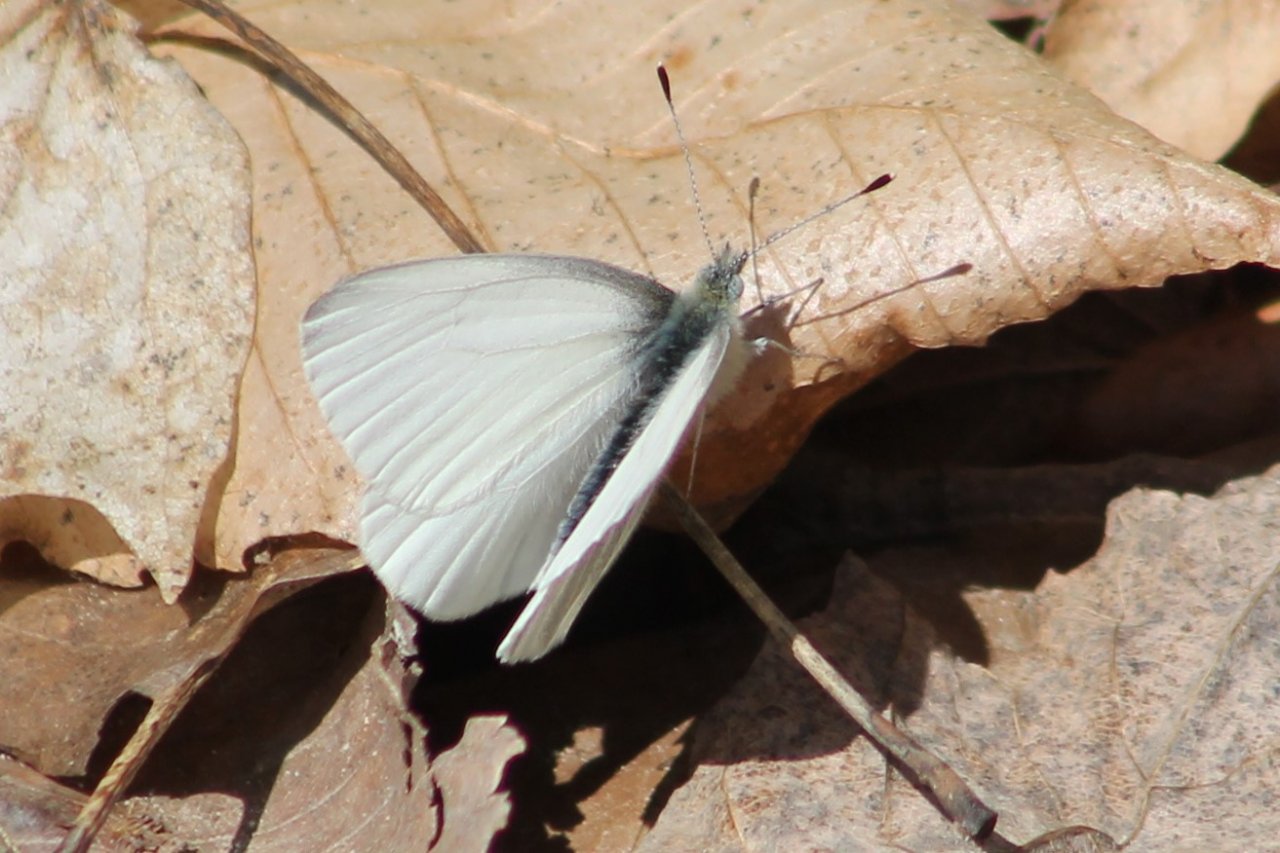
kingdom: Animalia
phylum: Arthropoda
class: Insecta
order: Lepidoptera
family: Pieridae
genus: Pieris
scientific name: Pieris oleracea
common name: Mustard White
